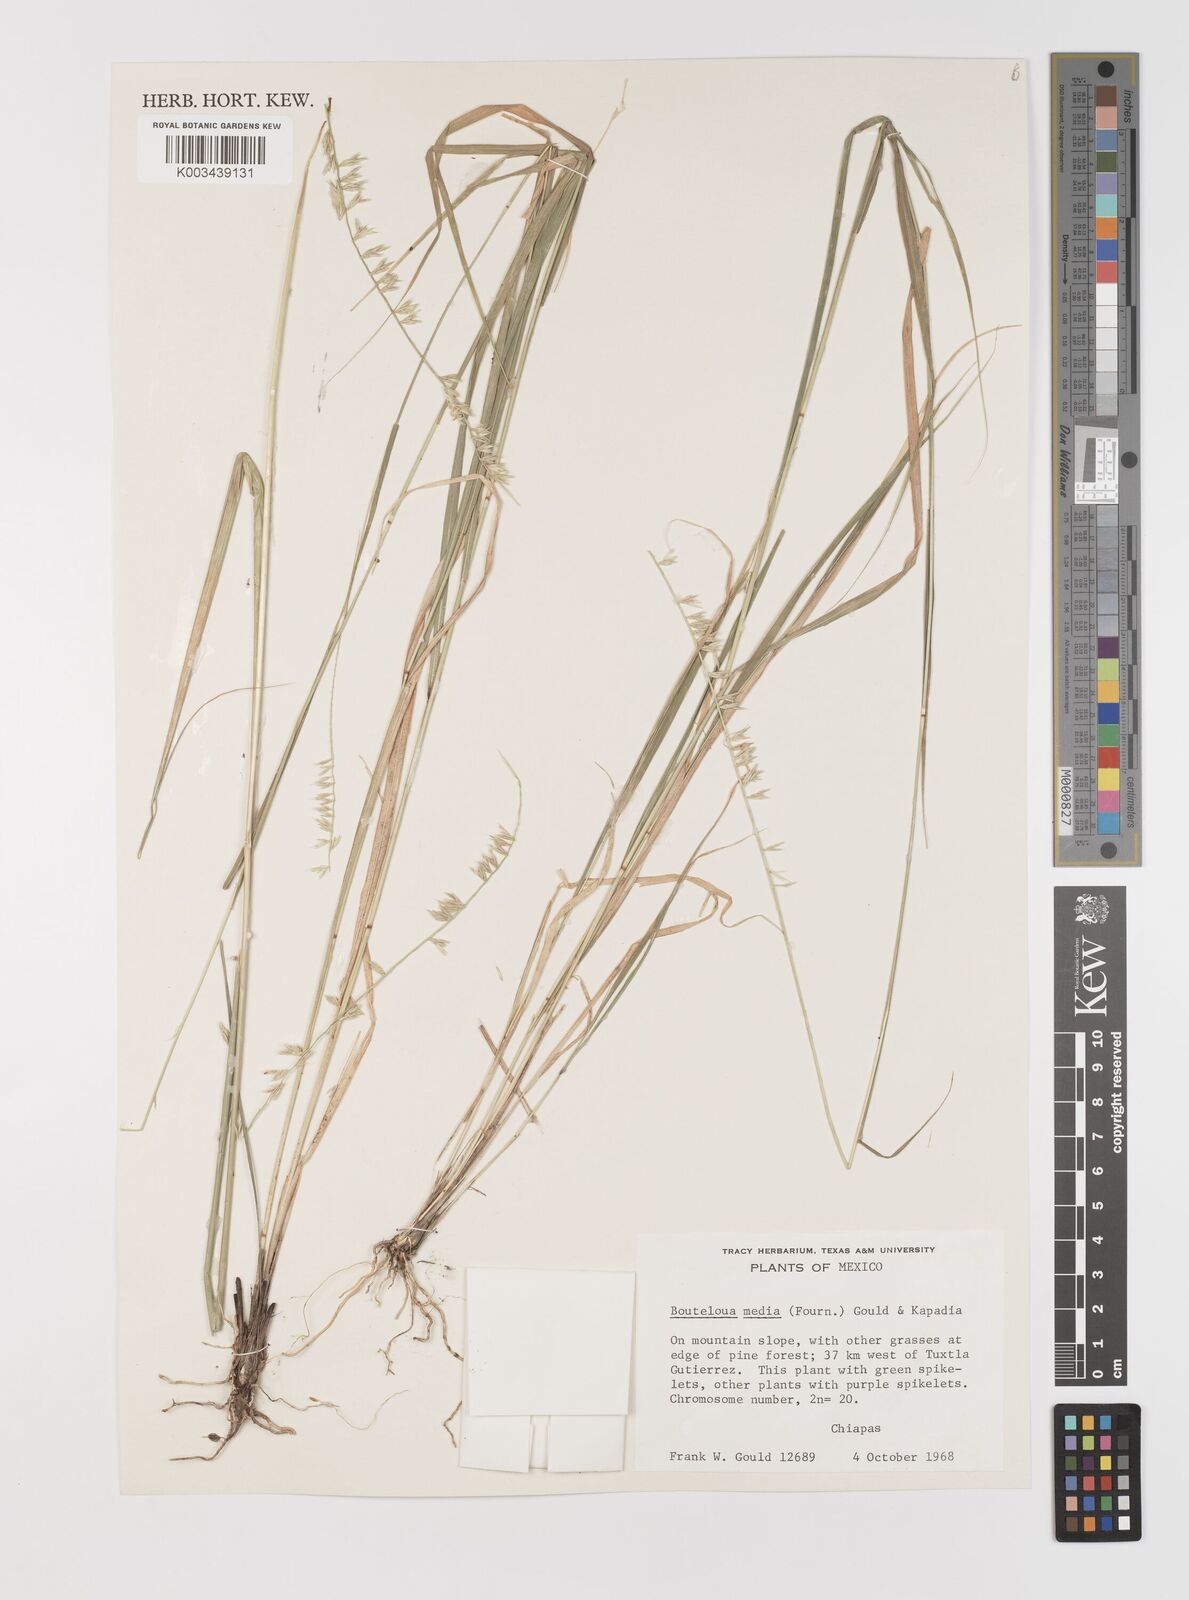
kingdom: Plantae
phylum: Tracheophyta
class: Liliopsida
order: Poales
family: Poaceae
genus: Bouteloua
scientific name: Bouteloua media
